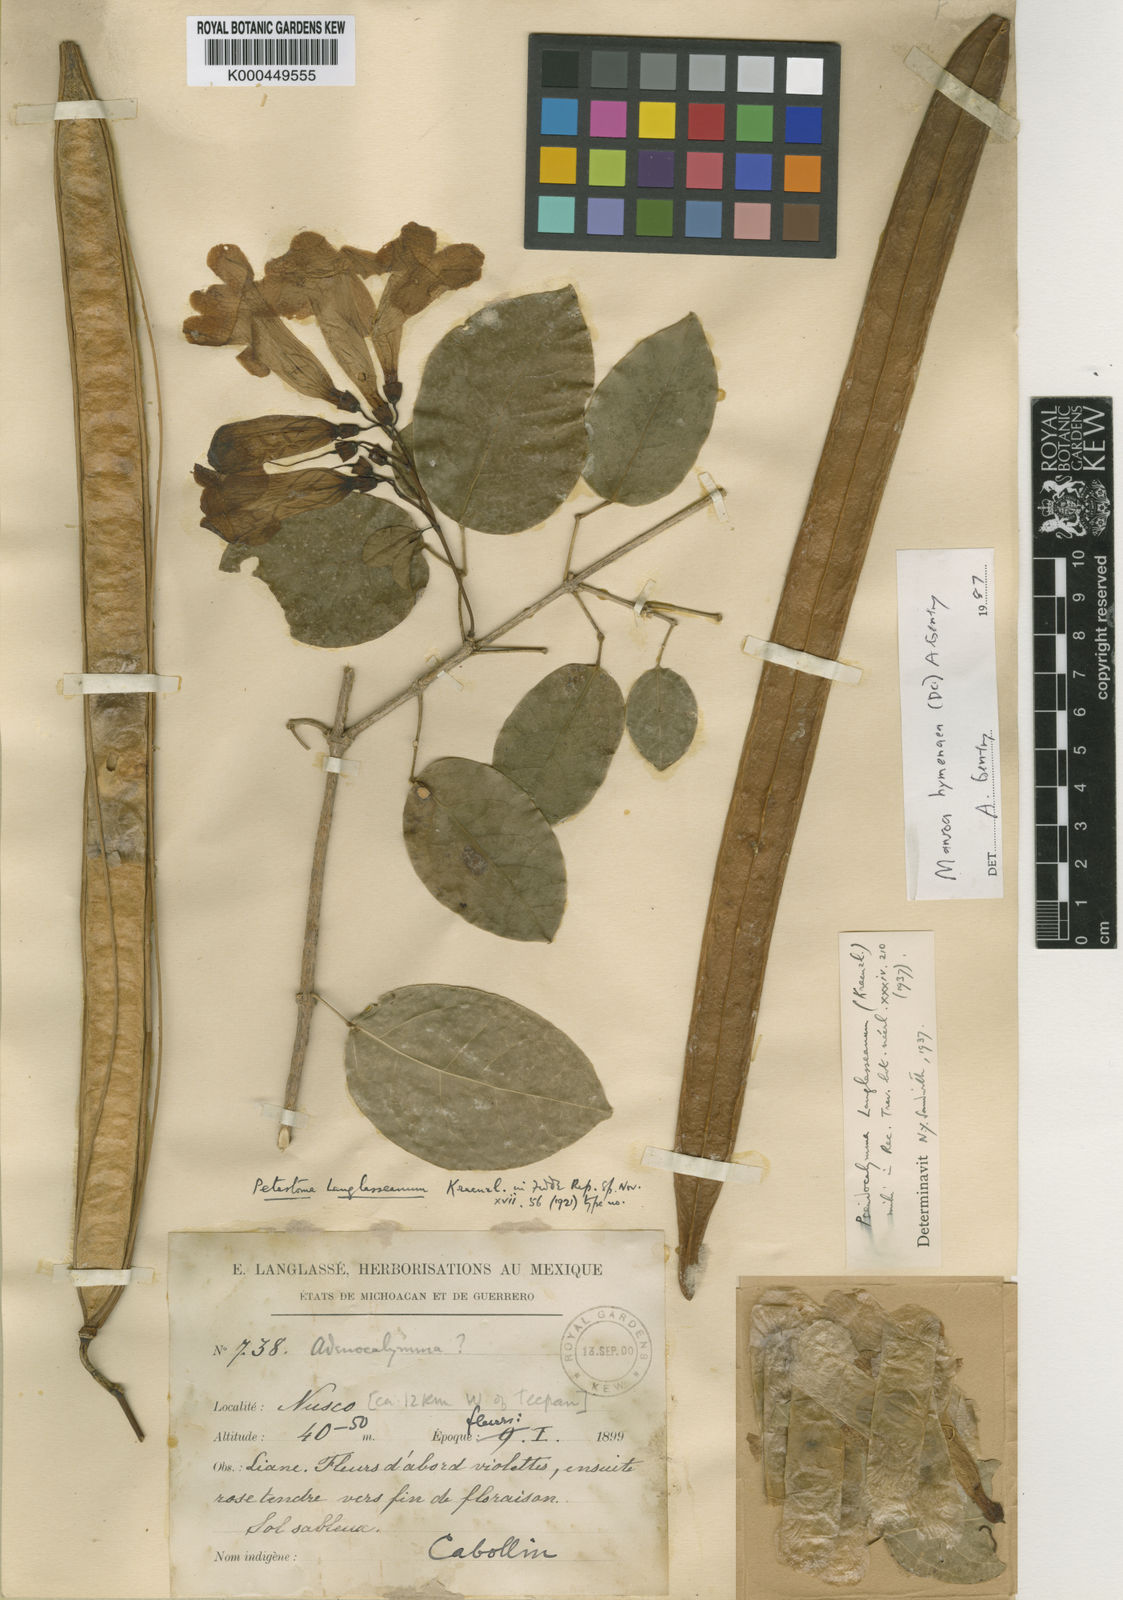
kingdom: Plantae
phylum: Tracheophyta
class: Magnoliopsida
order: Lamiales
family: Bignoniaceae
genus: Mansoa
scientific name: Mansoa hymenaea
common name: Membranous garlic vine
